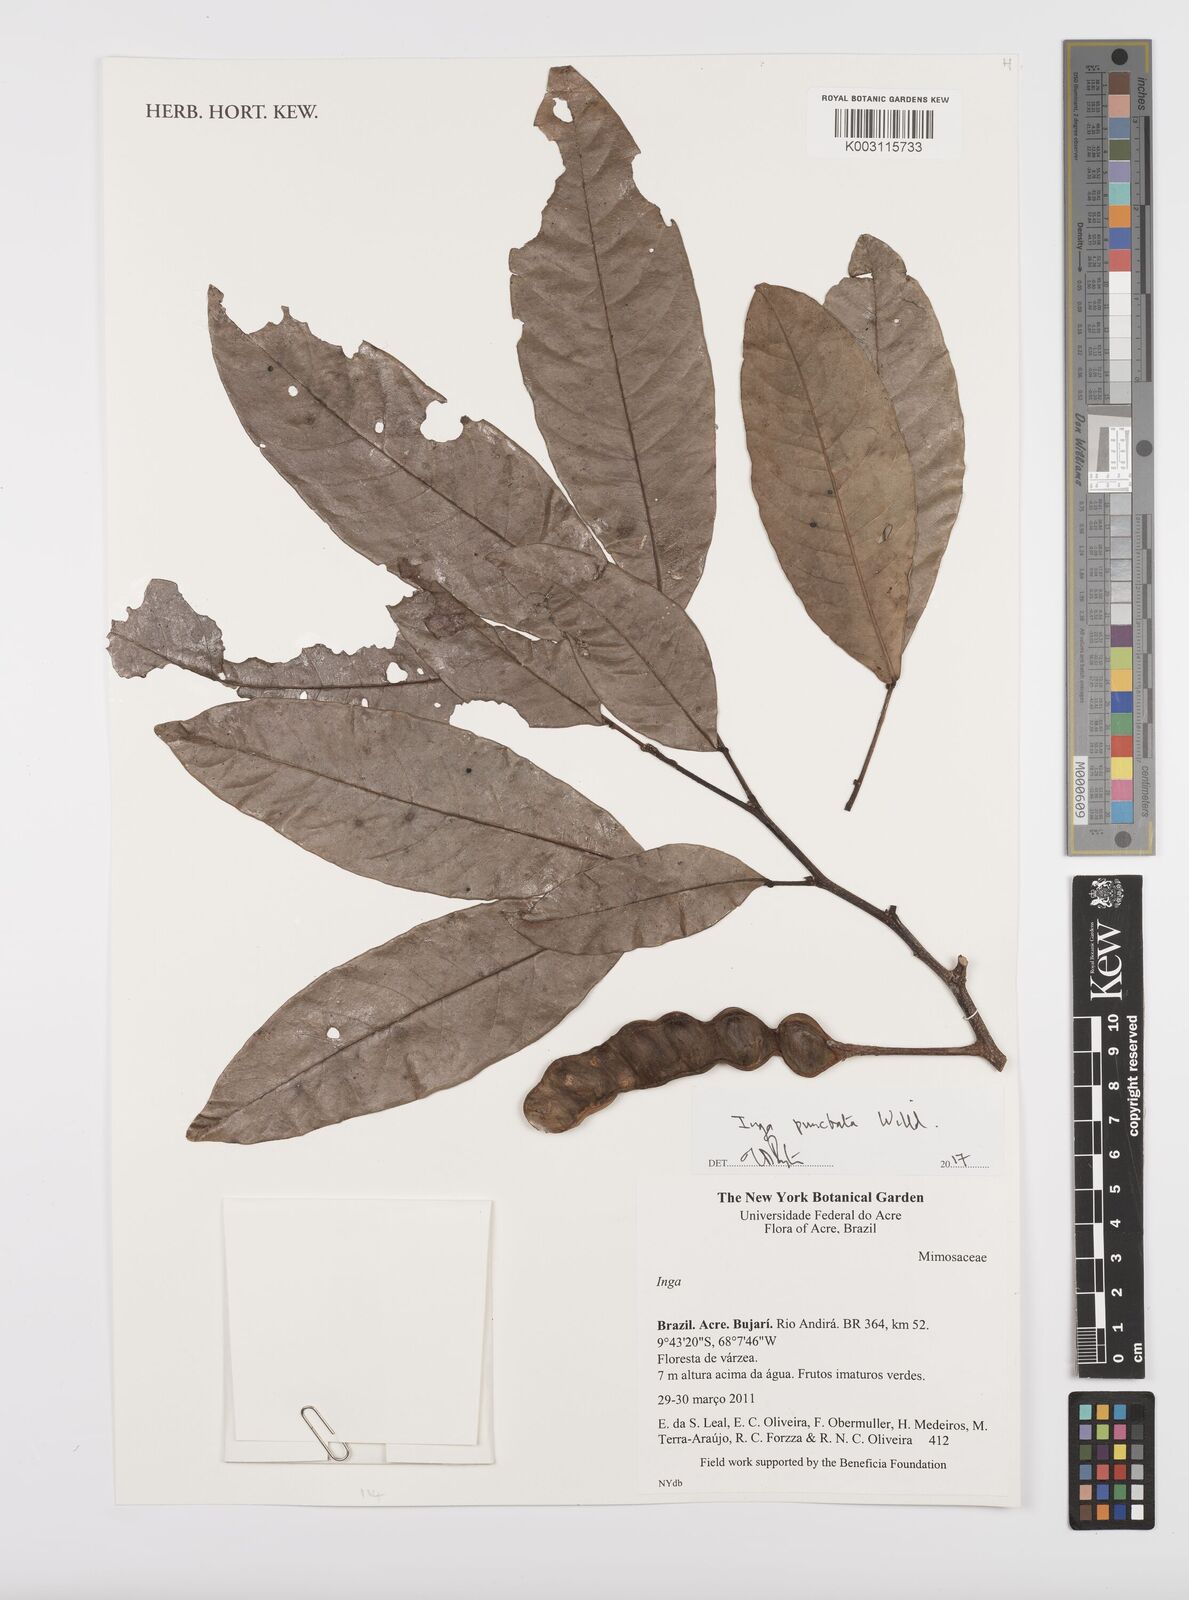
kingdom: Plantae
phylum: Tracheophyta
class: Magnoliopsida
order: Fabales
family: Fabaceae
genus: Inga
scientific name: Inga punctata
